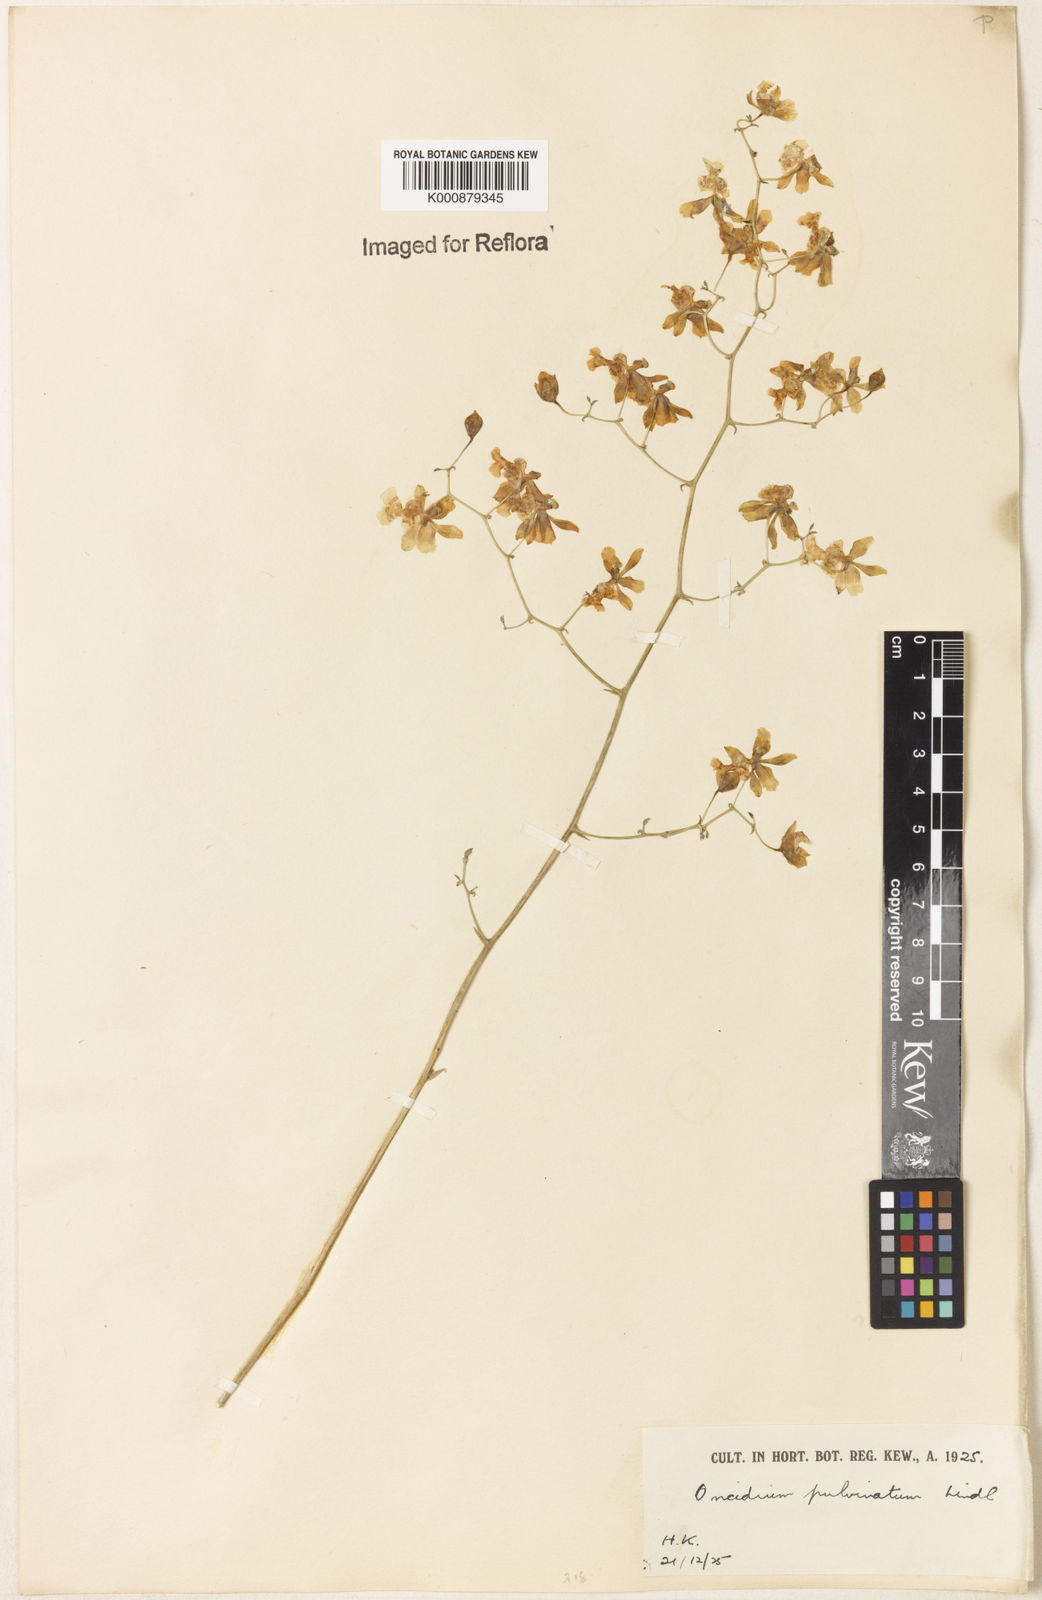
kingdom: Plantae
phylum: Tracheophyta
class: Liliopsida
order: Asparagales
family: Orchidaceae
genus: Grandiphyllum
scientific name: Grandiphyllum divaricatum
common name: Mule-ear orchid
